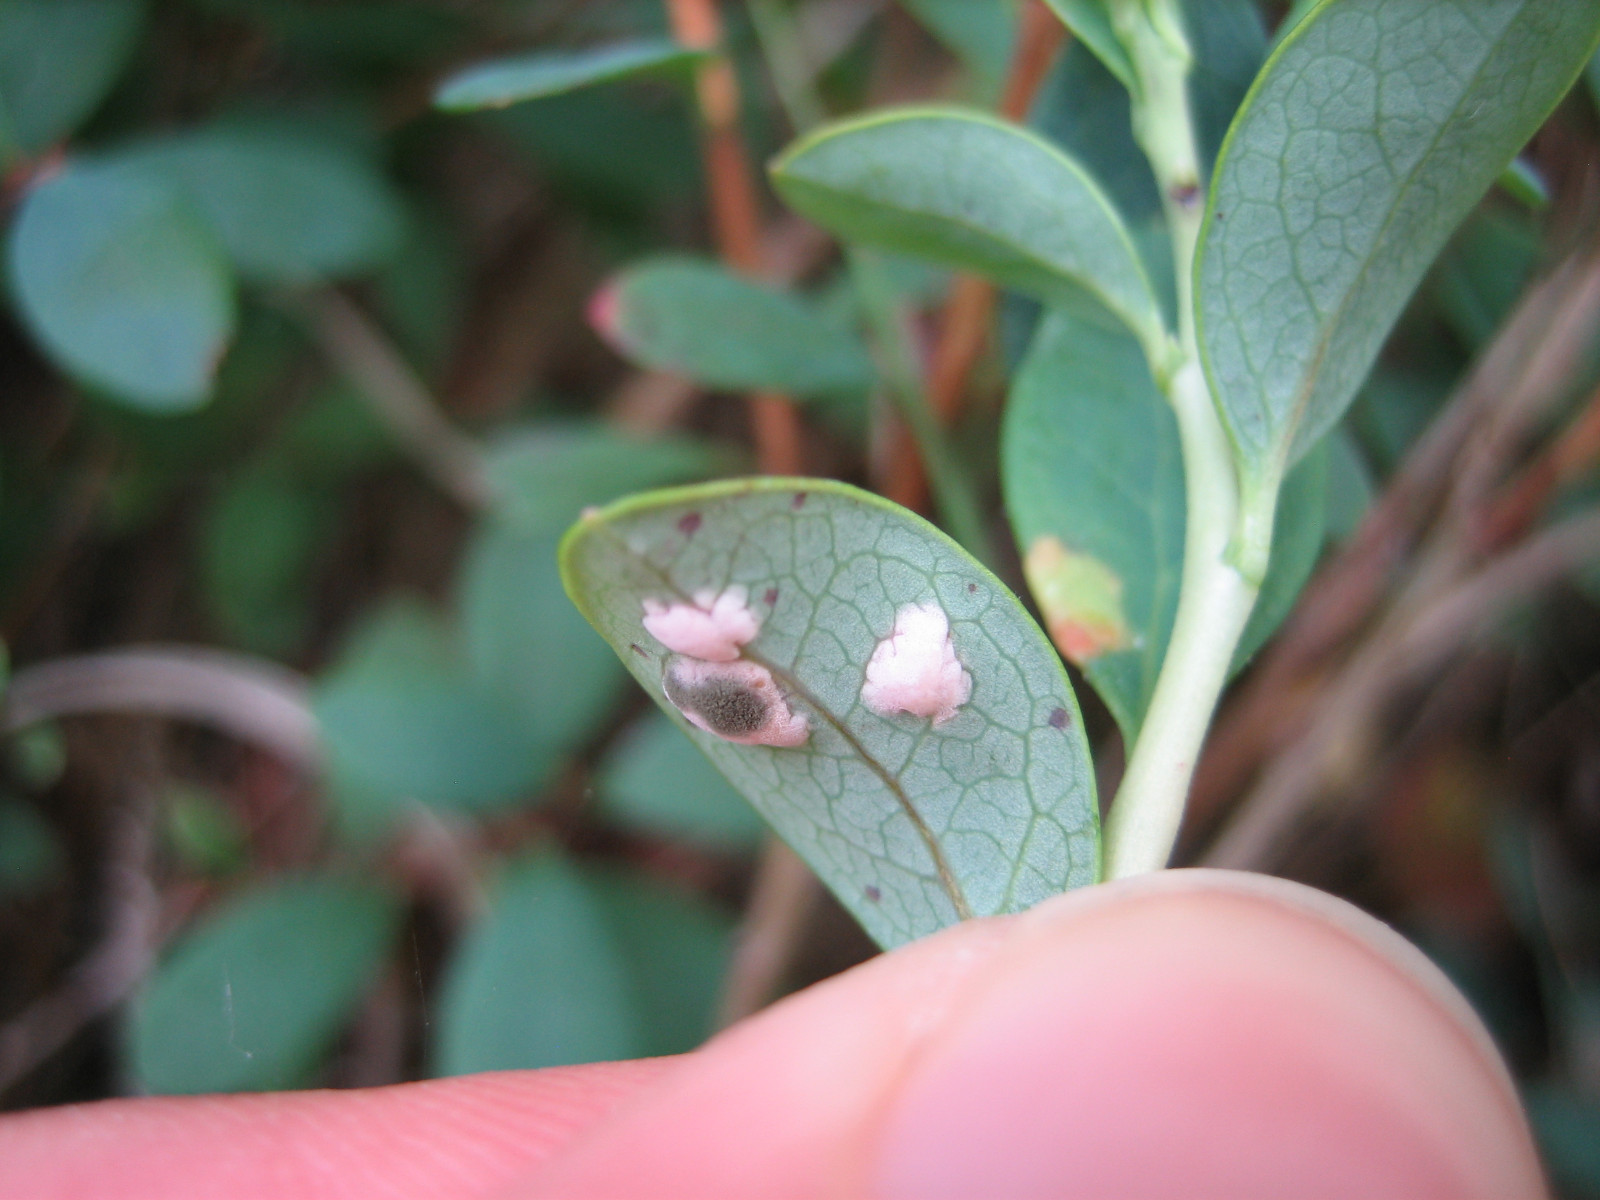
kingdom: Fungi
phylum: Basidiomycota
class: Exobasidiomycetes
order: Exobasidiales
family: Exobasidiaceae
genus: Exobasidium
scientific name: Exobasidium pachysporum
